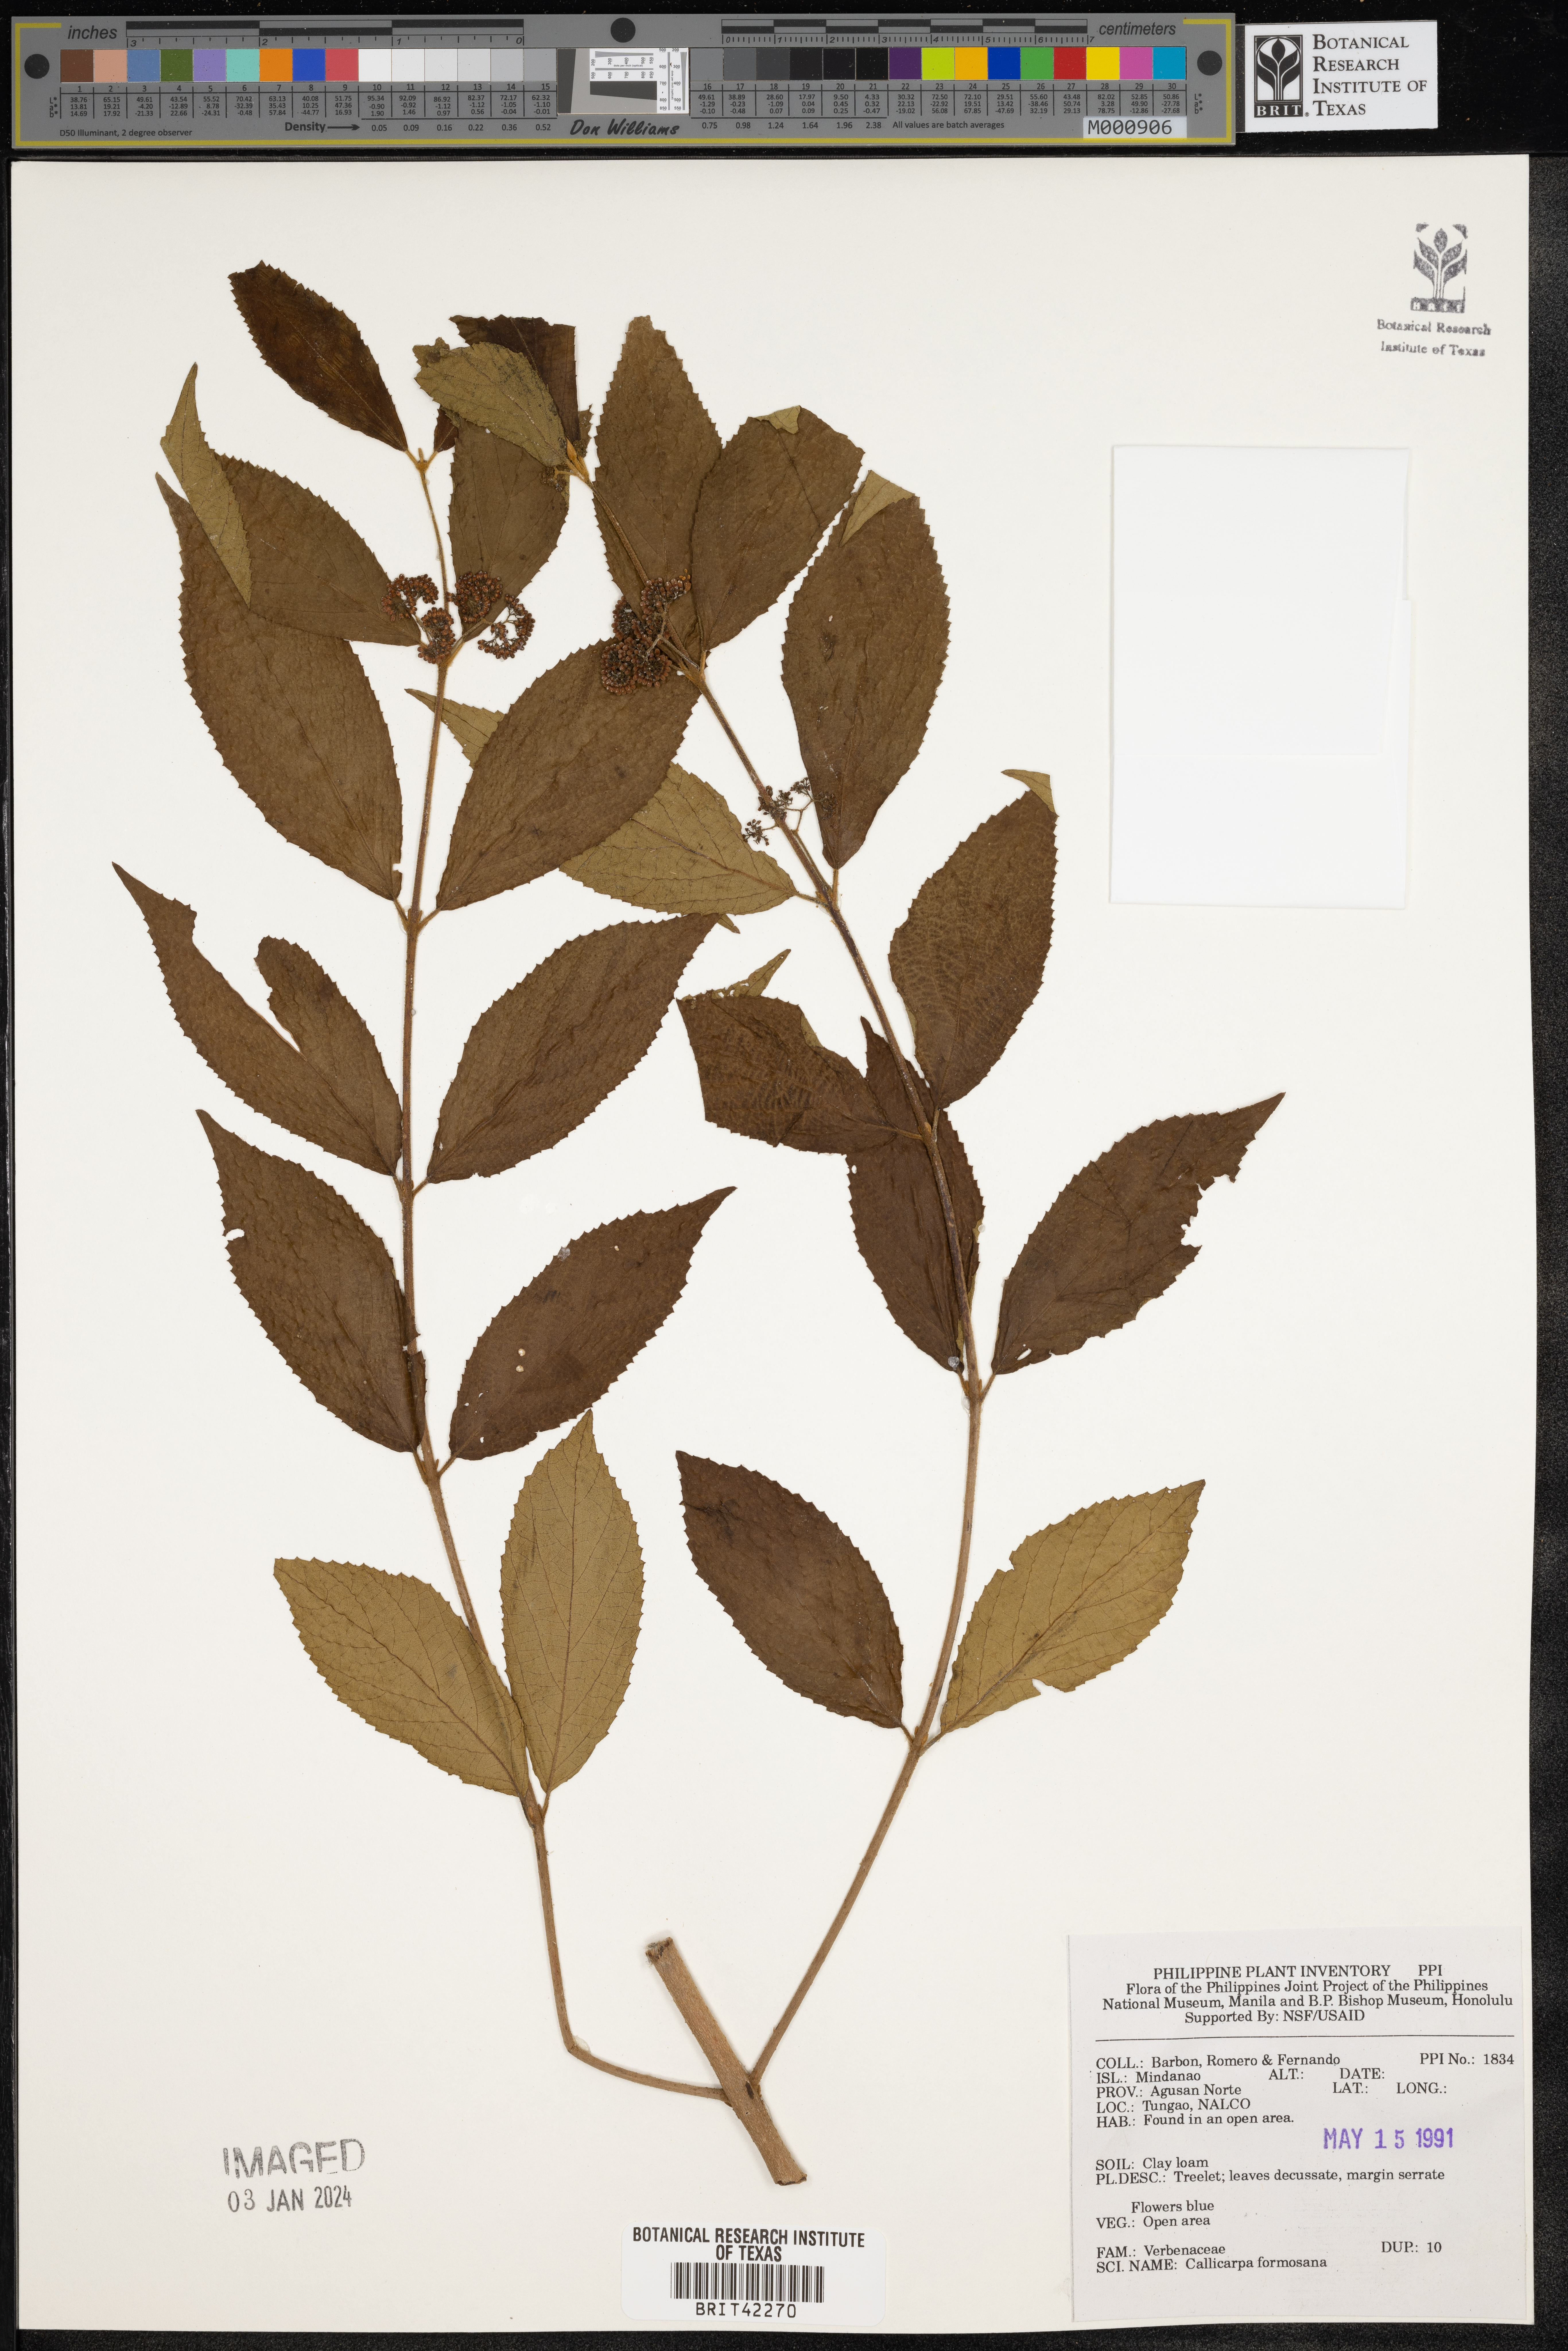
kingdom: Plantae
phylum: Tracheophyta
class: Magnoliopsida
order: Lamiales
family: Lamiaceae
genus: Callicarpa
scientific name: Callicarpa pedunculata
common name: Velvetleaf
